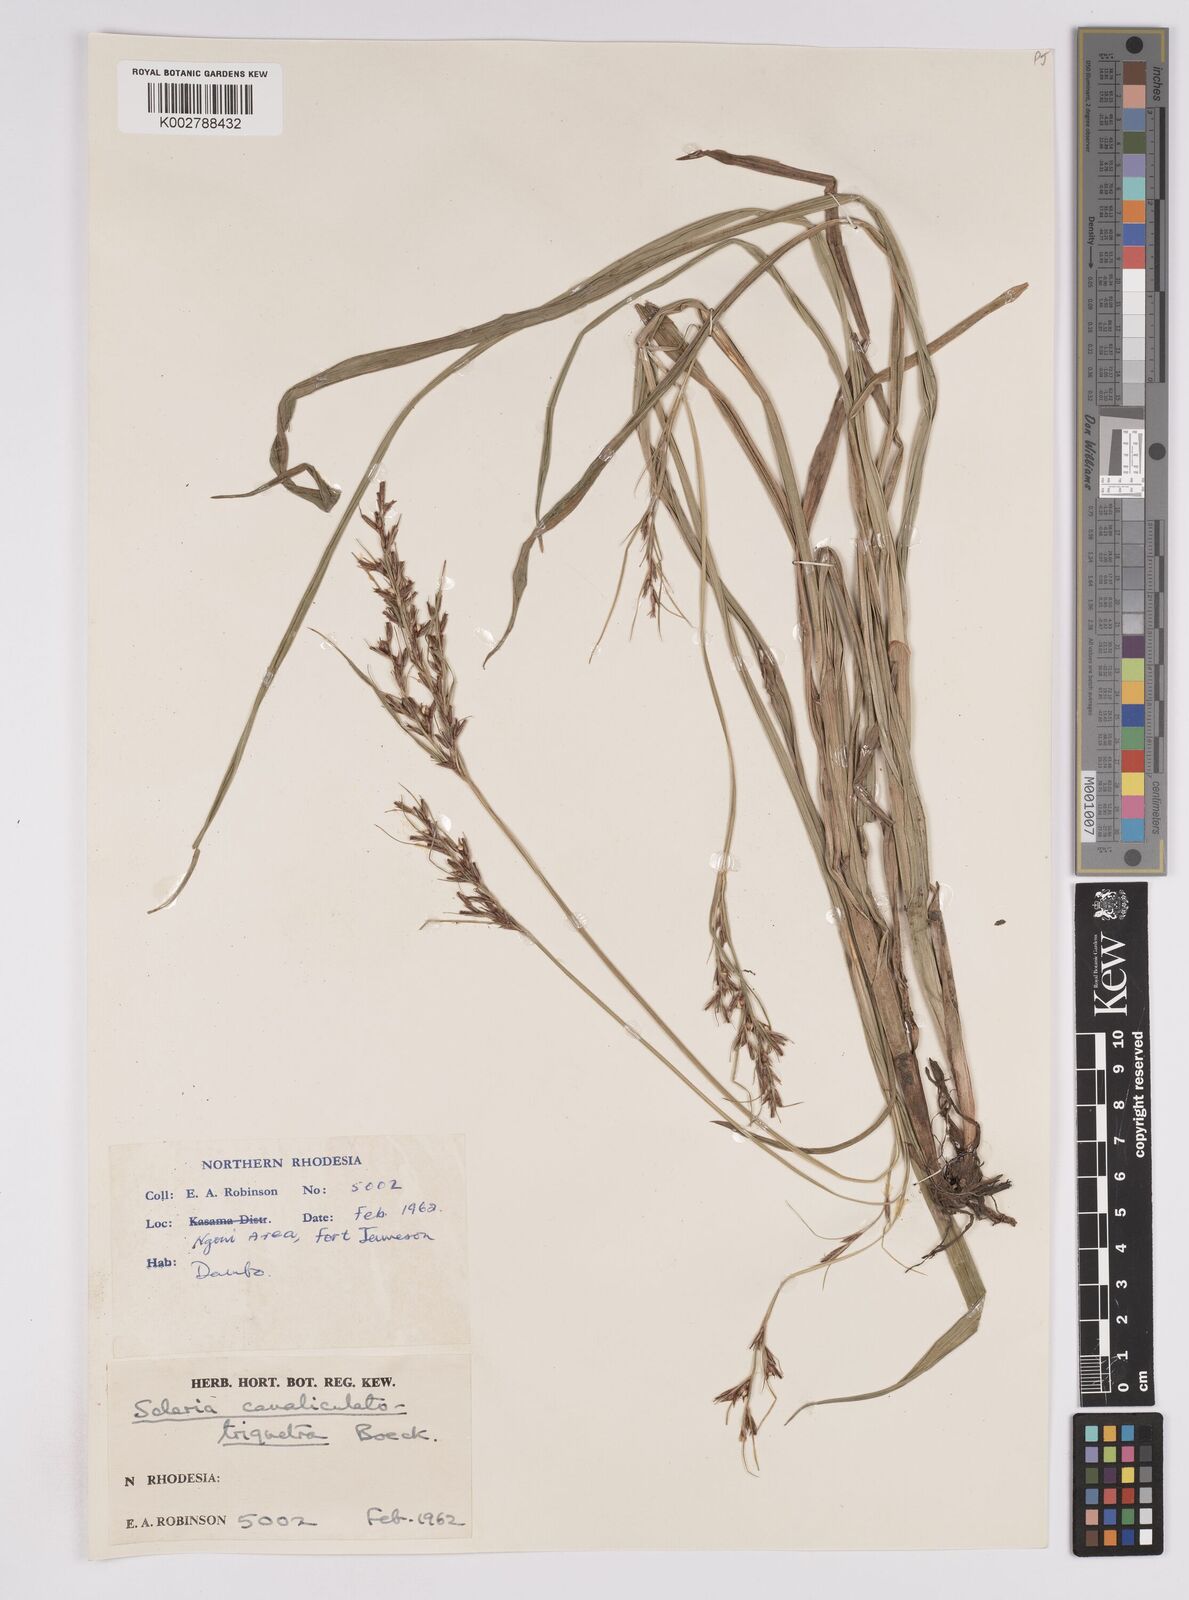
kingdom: Plantae
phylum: Tracheophyta
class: Liliopsida
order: Poales
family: Cyperaceae
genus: Scleria
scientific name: Scleria lagoensis
